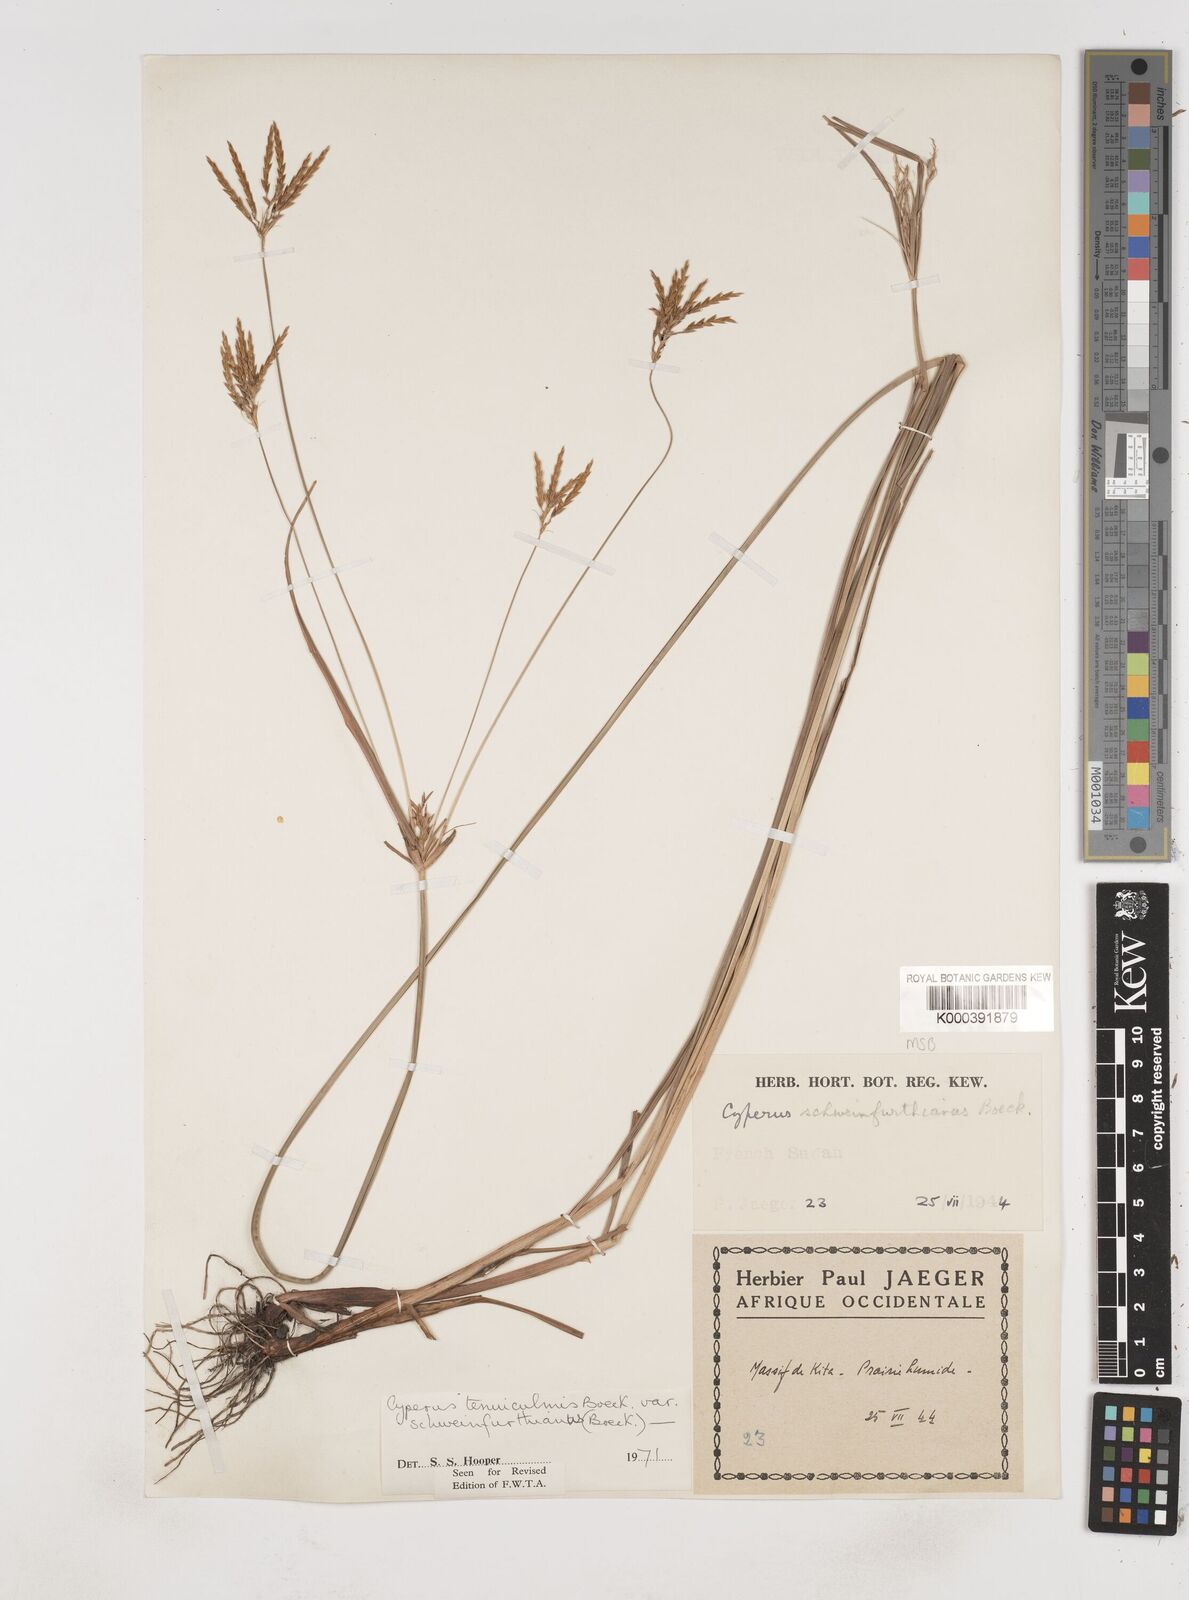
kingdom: Plantae
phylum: Tracheophyta
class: Liliopsida
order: Poales
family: Cyperaceae
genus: Cyperus
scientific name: Cyperus tenuiculmis
